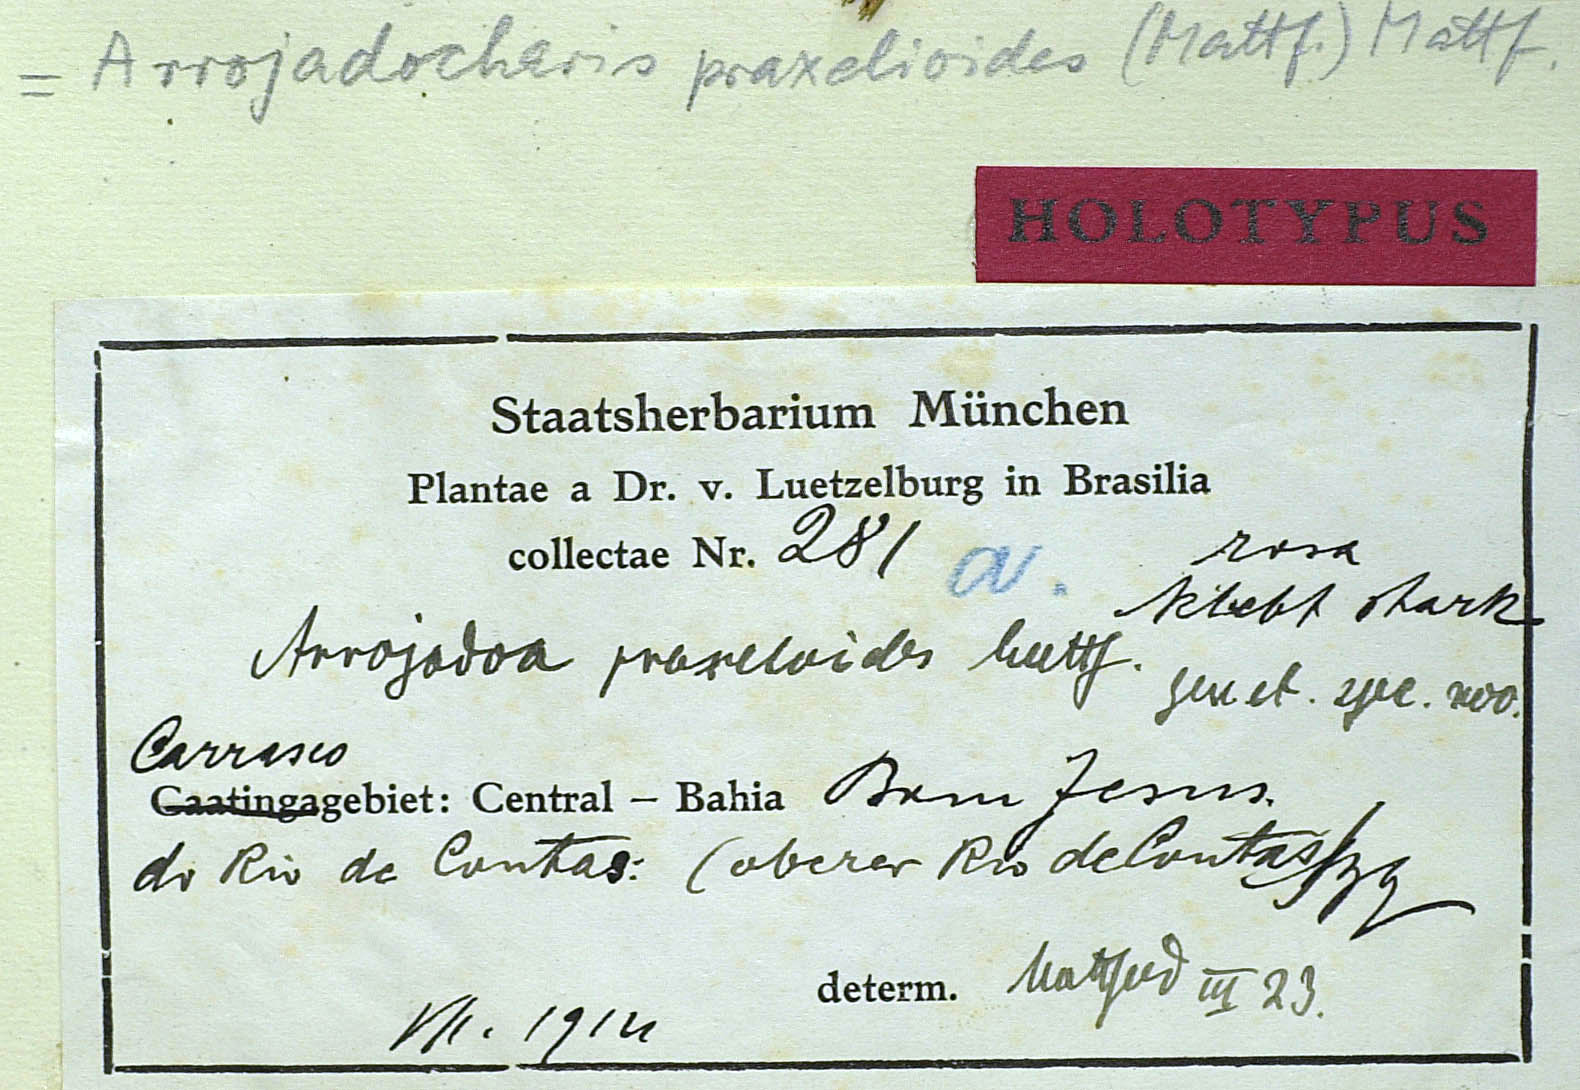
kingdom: Plantae
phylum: Tracheophyta
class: Magnoliopsida
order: Asterales
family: Asteraceae
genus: Arrojadocharis
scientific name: Arrojadocharis praxeloides
